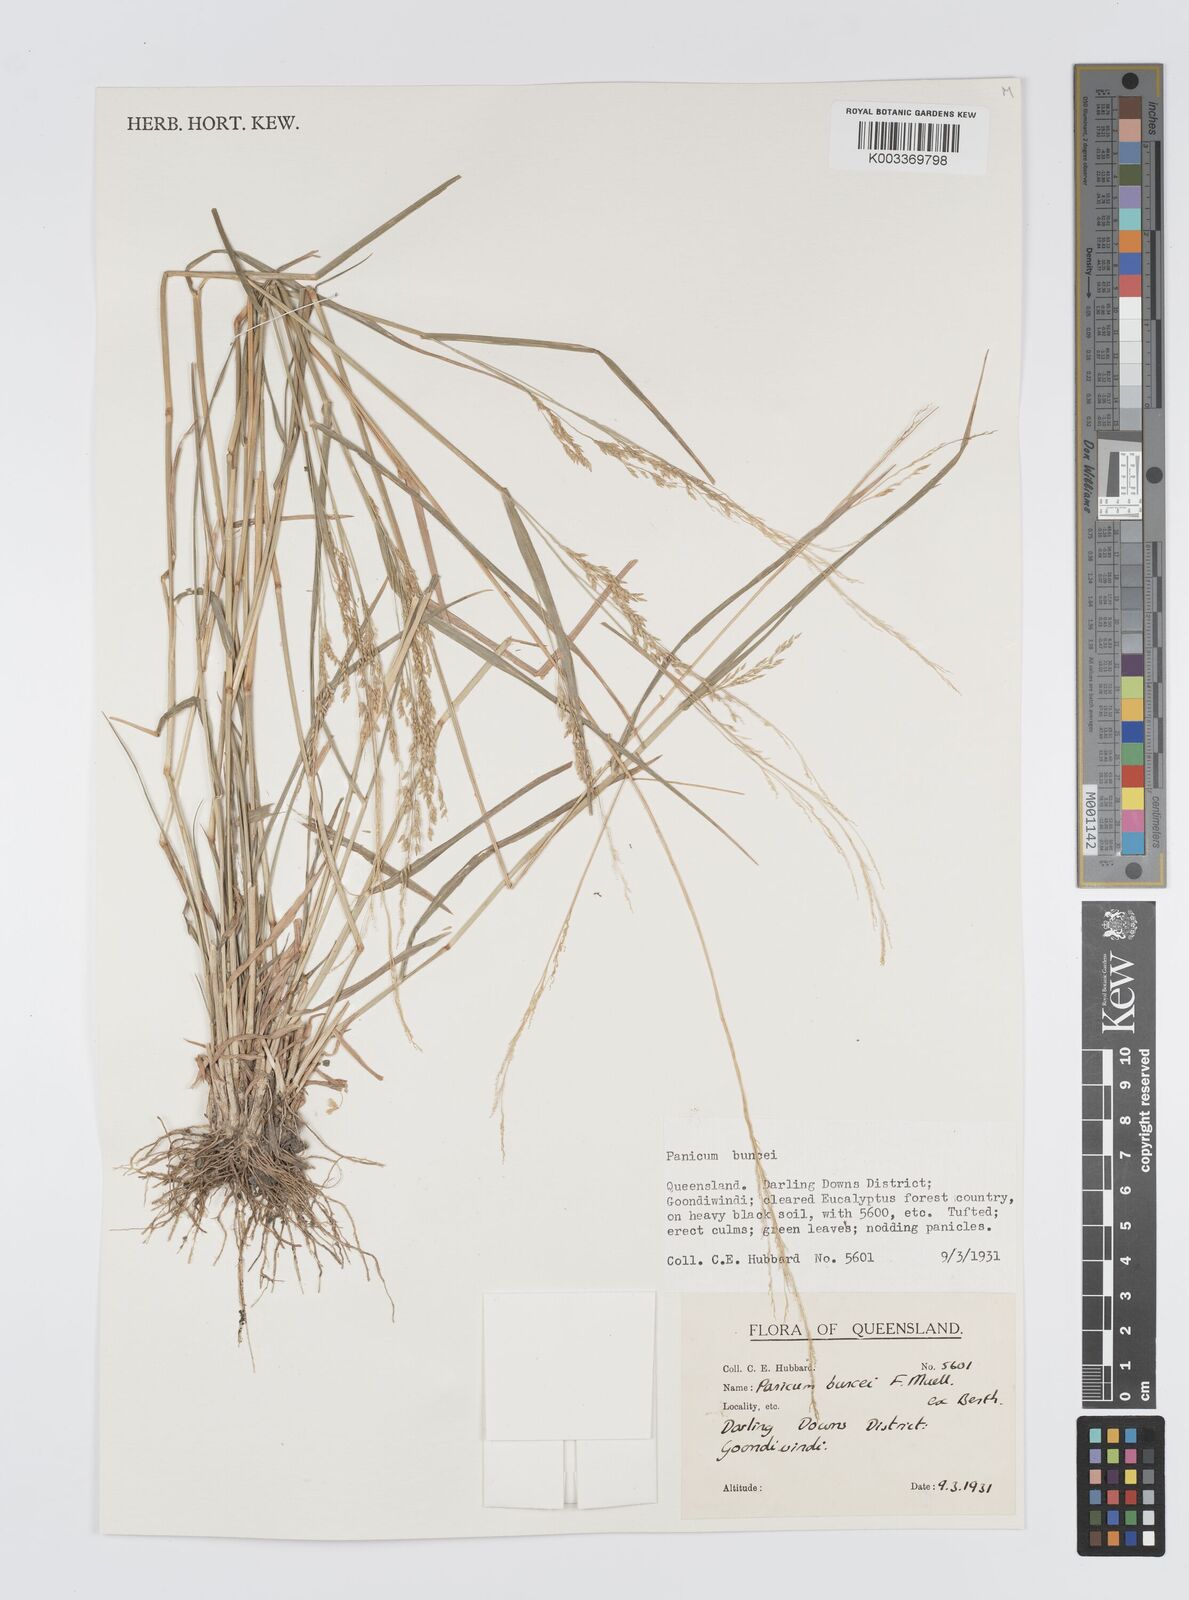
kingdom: Plantae
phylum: Tracheophyta
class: Liliopsida
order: Poales
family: Poaceae
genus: Panicum
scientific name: Panicum buncei
